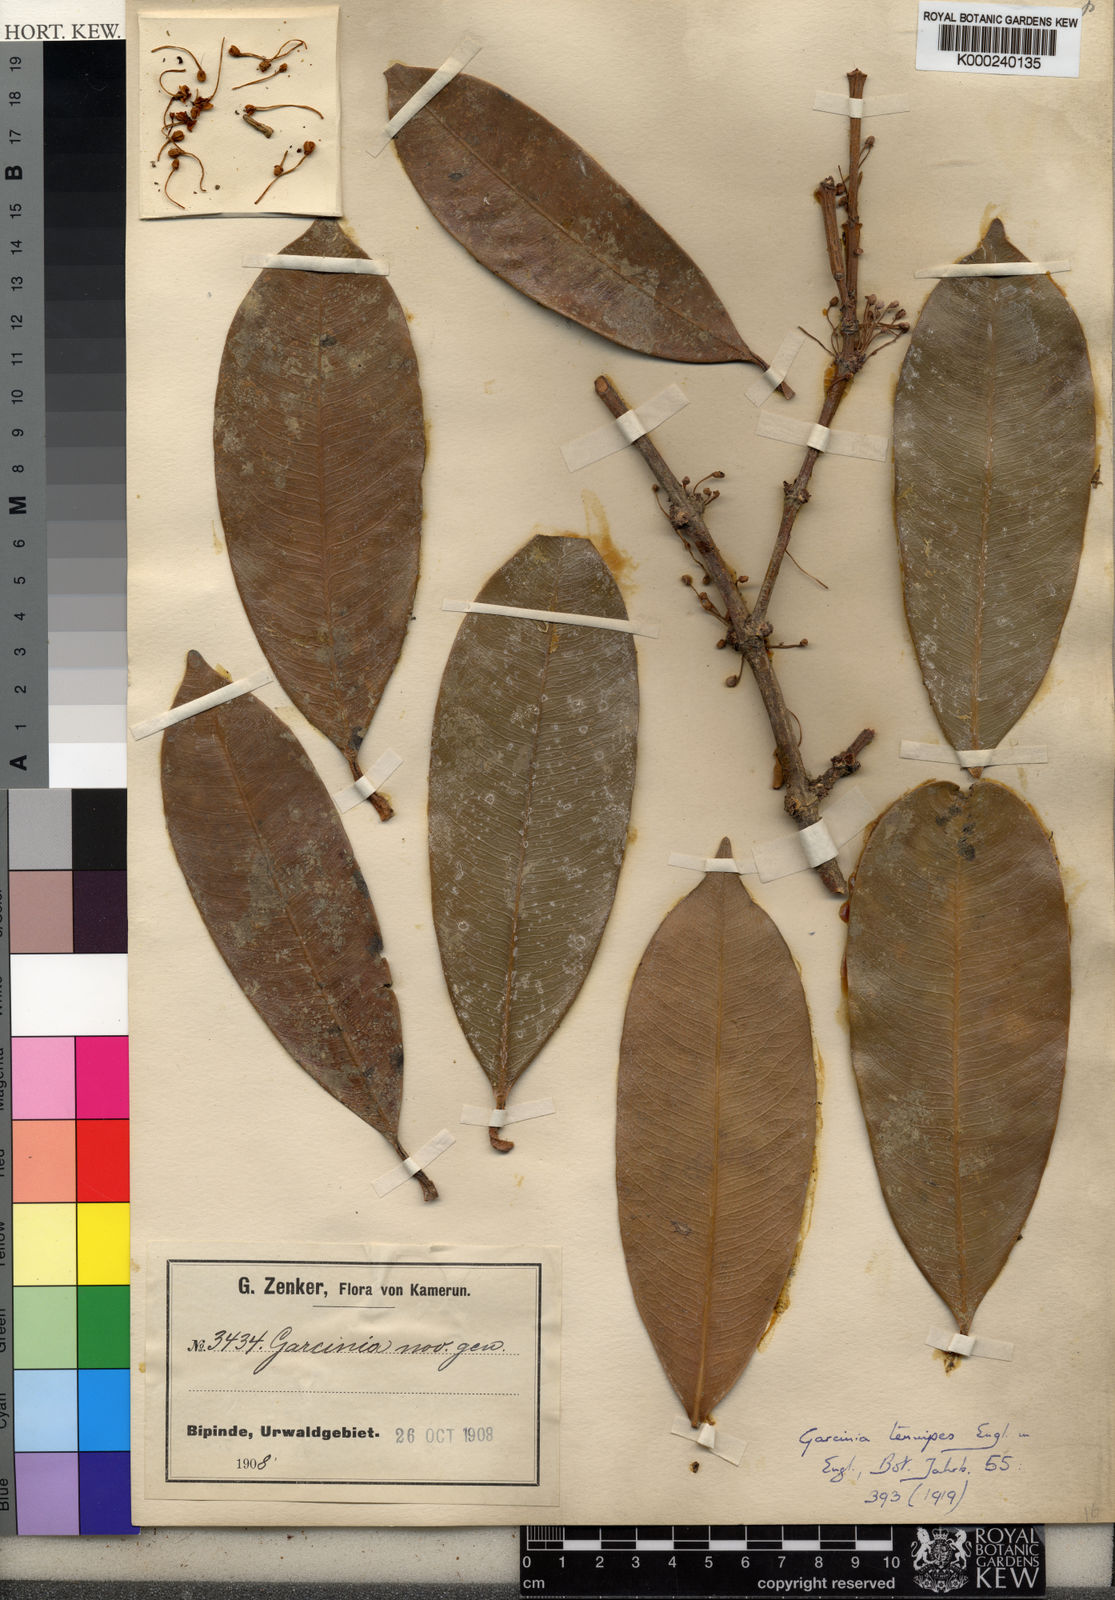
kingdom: Plantae
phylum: Tracheophyta
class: Magnoliopsida
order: Malpighiales
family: Clusiaceae
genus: Garcinia
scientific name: Garcinia smeathmannii
